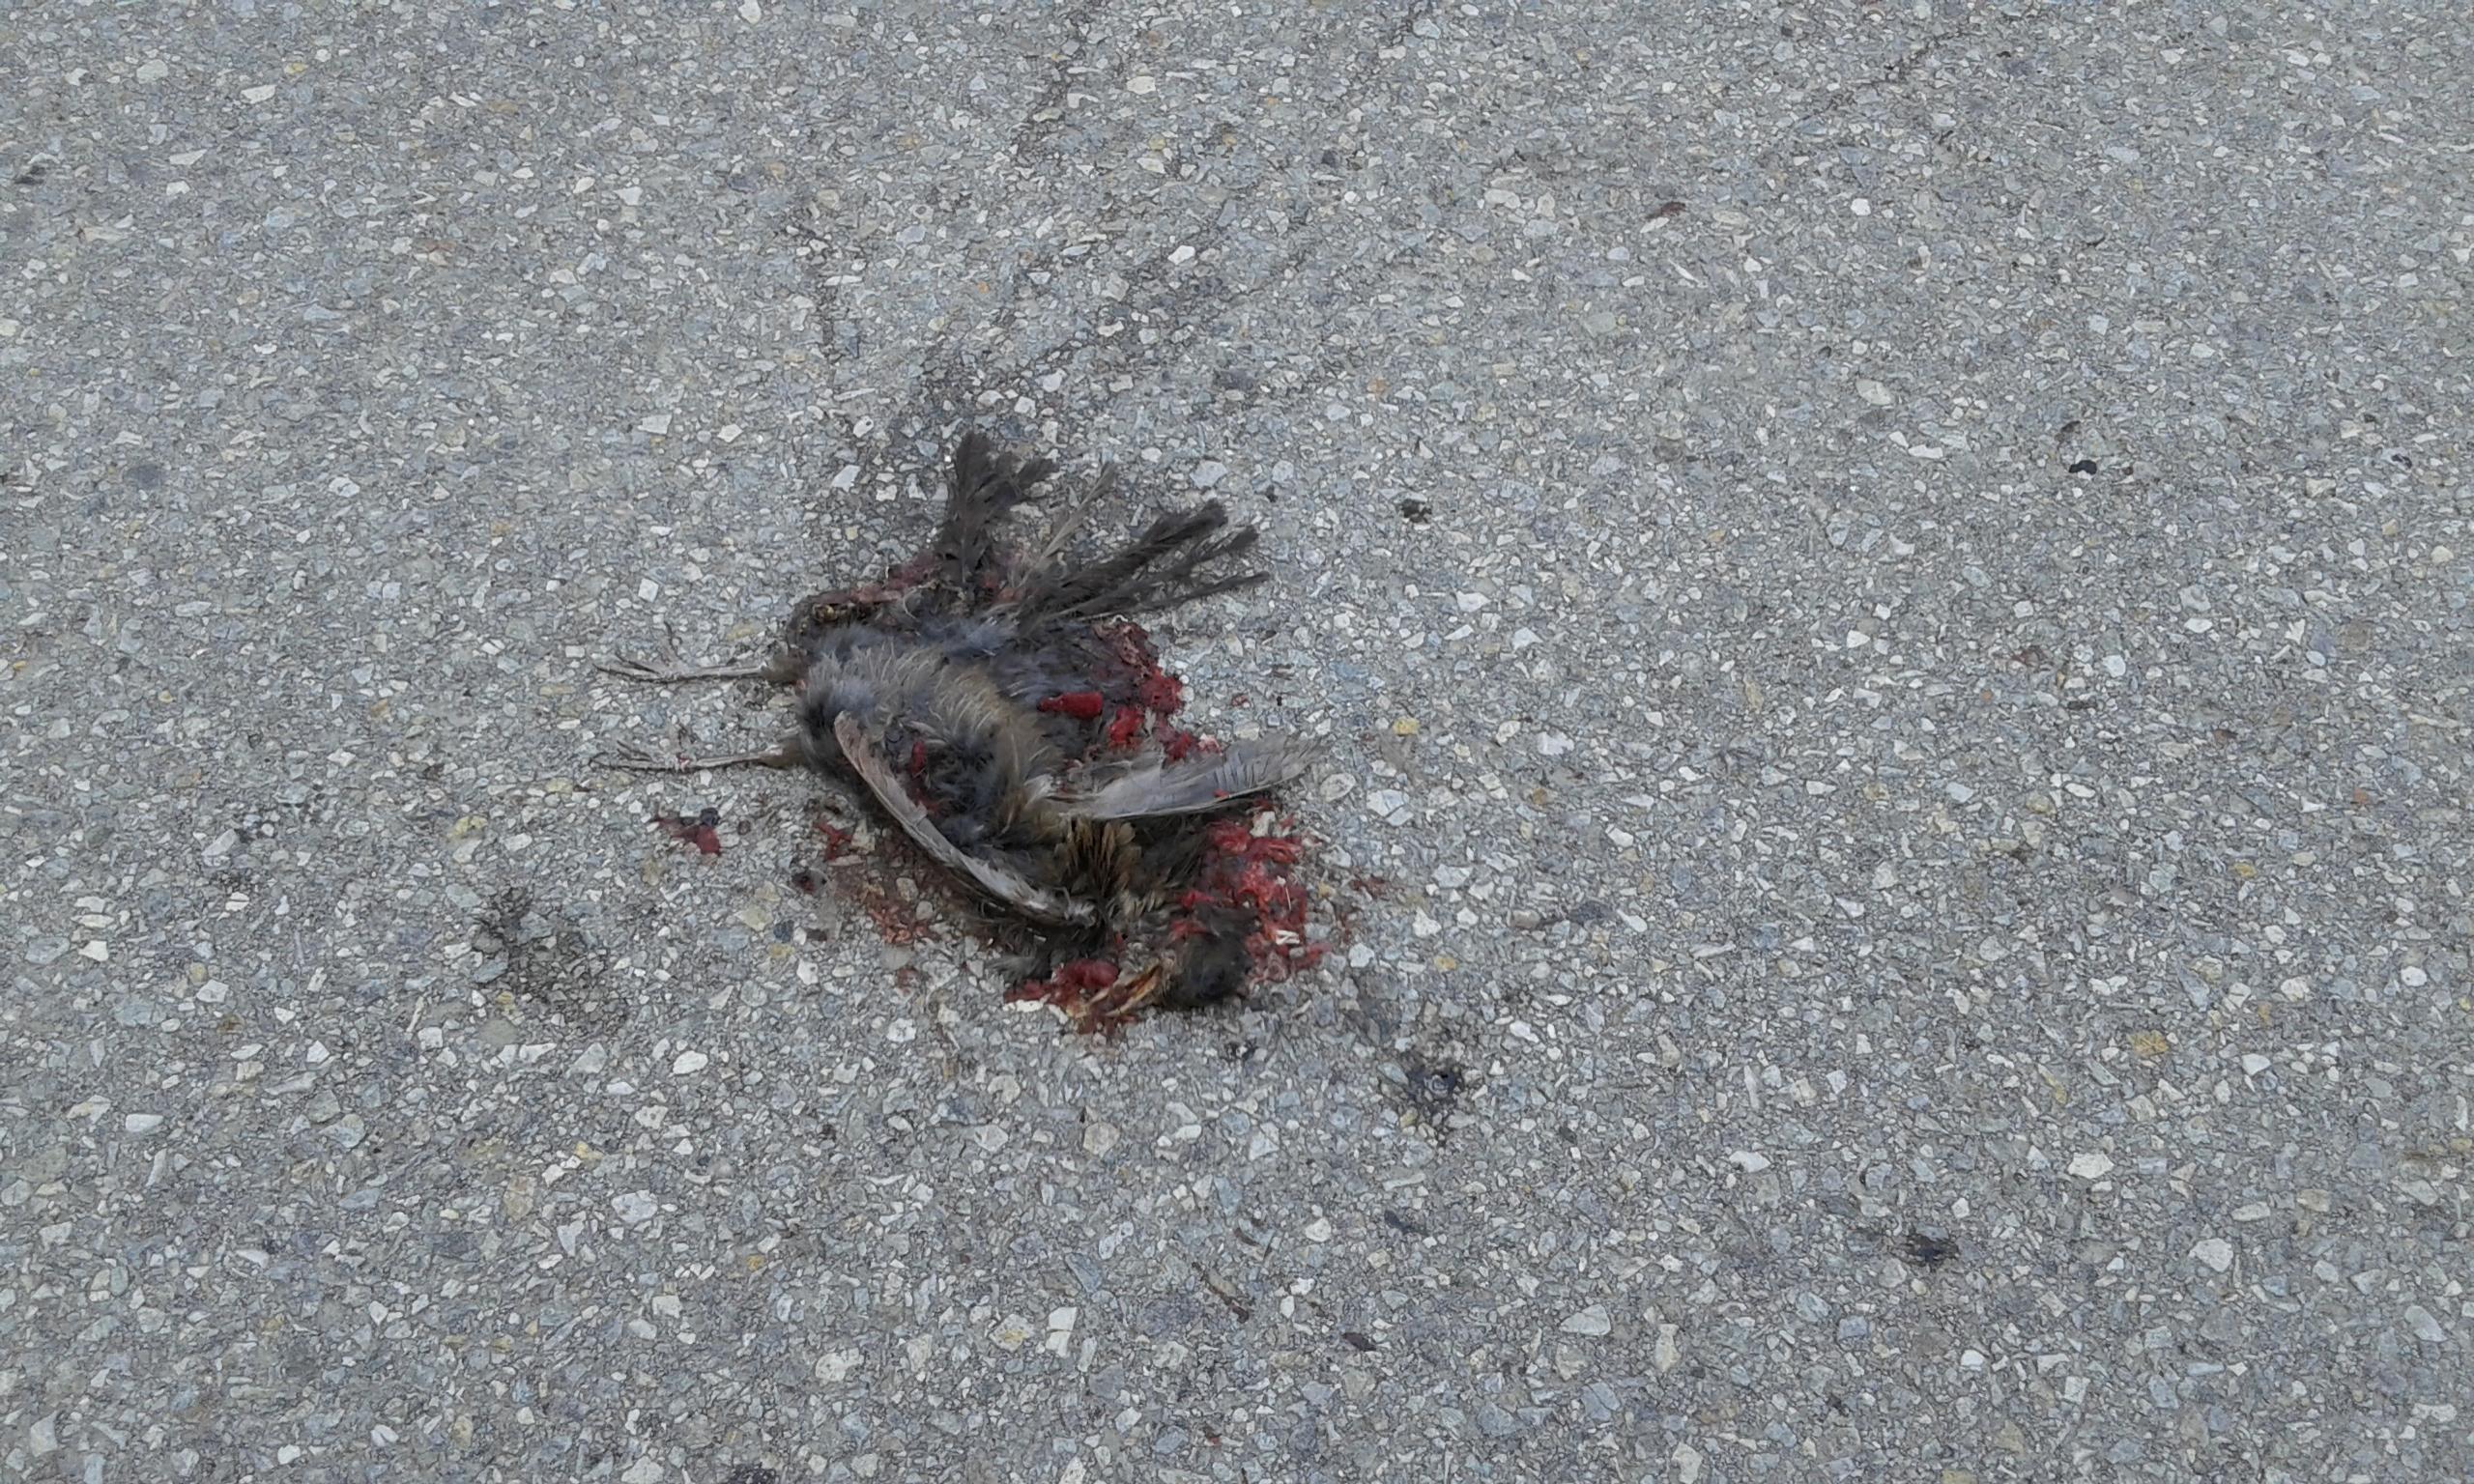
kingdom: Animalia
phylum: Chordata
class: Aves
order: Passeriformes
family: Turdidae
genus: Turdus
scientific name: Turdus merula
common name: Common blackbird
